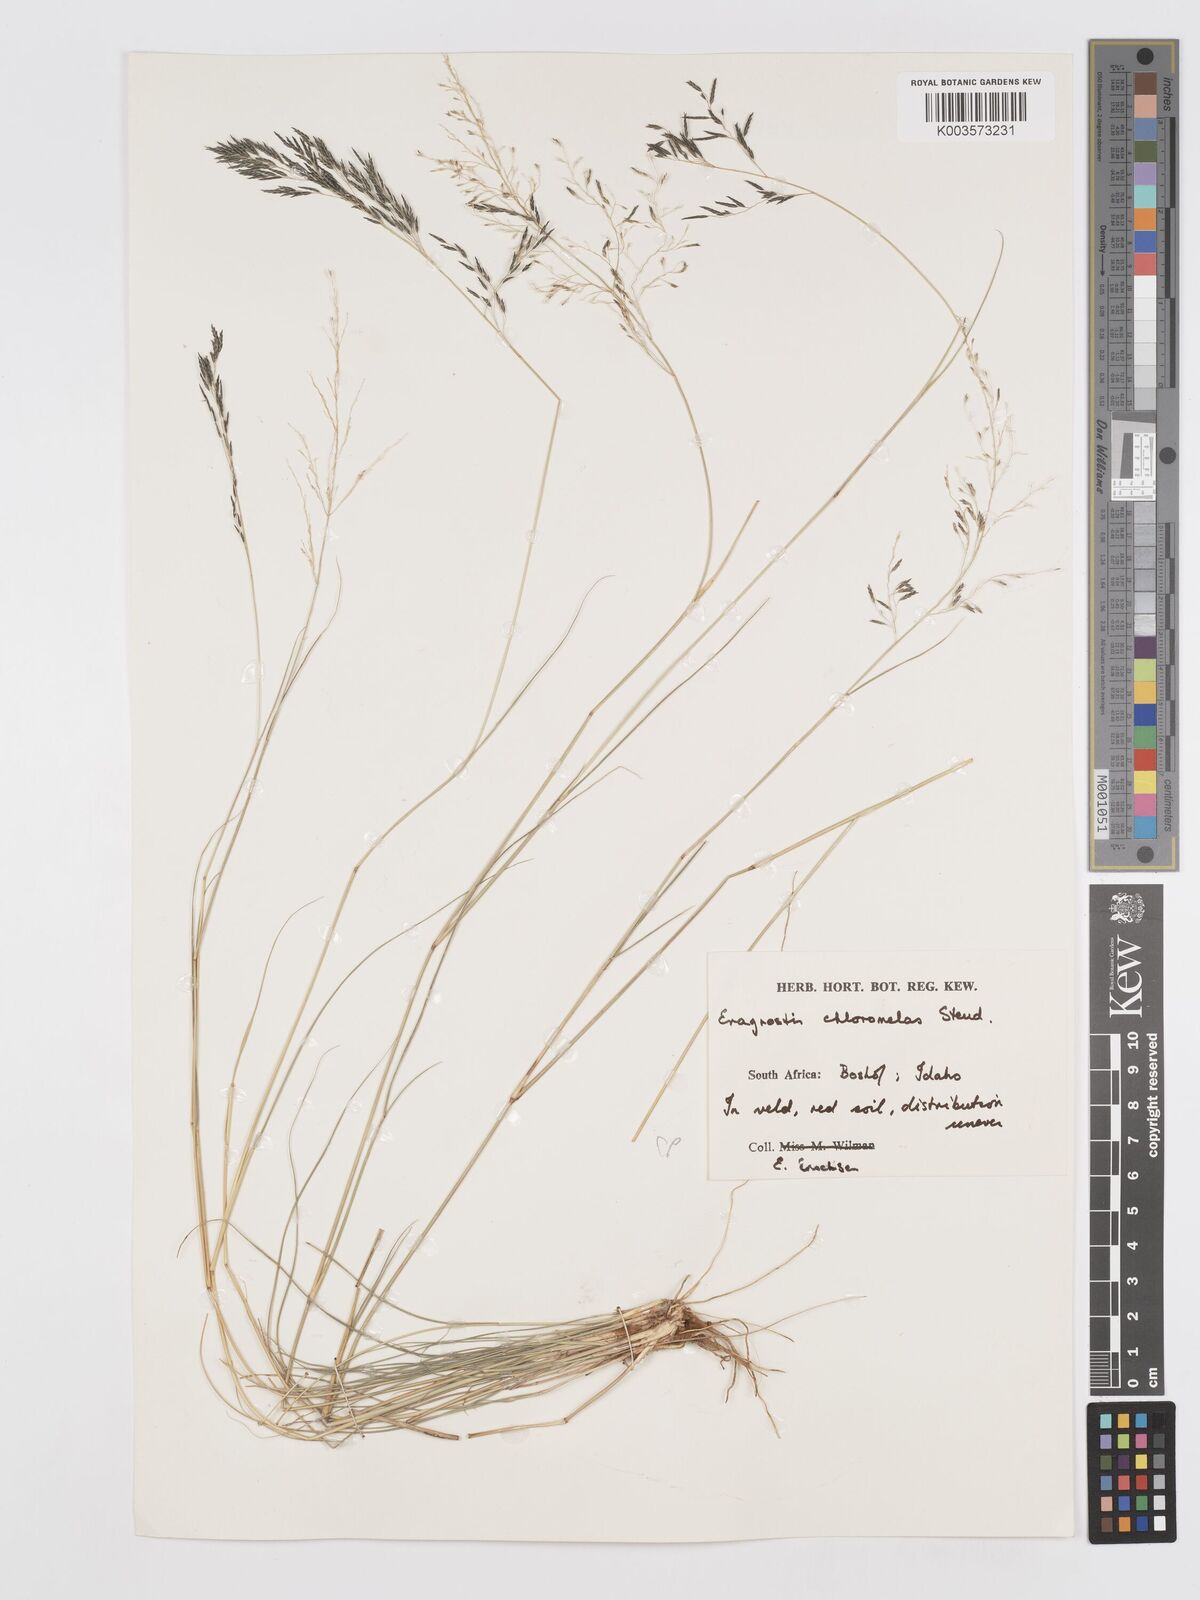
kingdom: Plantae
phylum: Tracheophyta
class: Liliopsida
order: Poales
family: Poaceae
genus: Eragrostis
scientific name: Eragrostis curvula
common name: African love-grass
